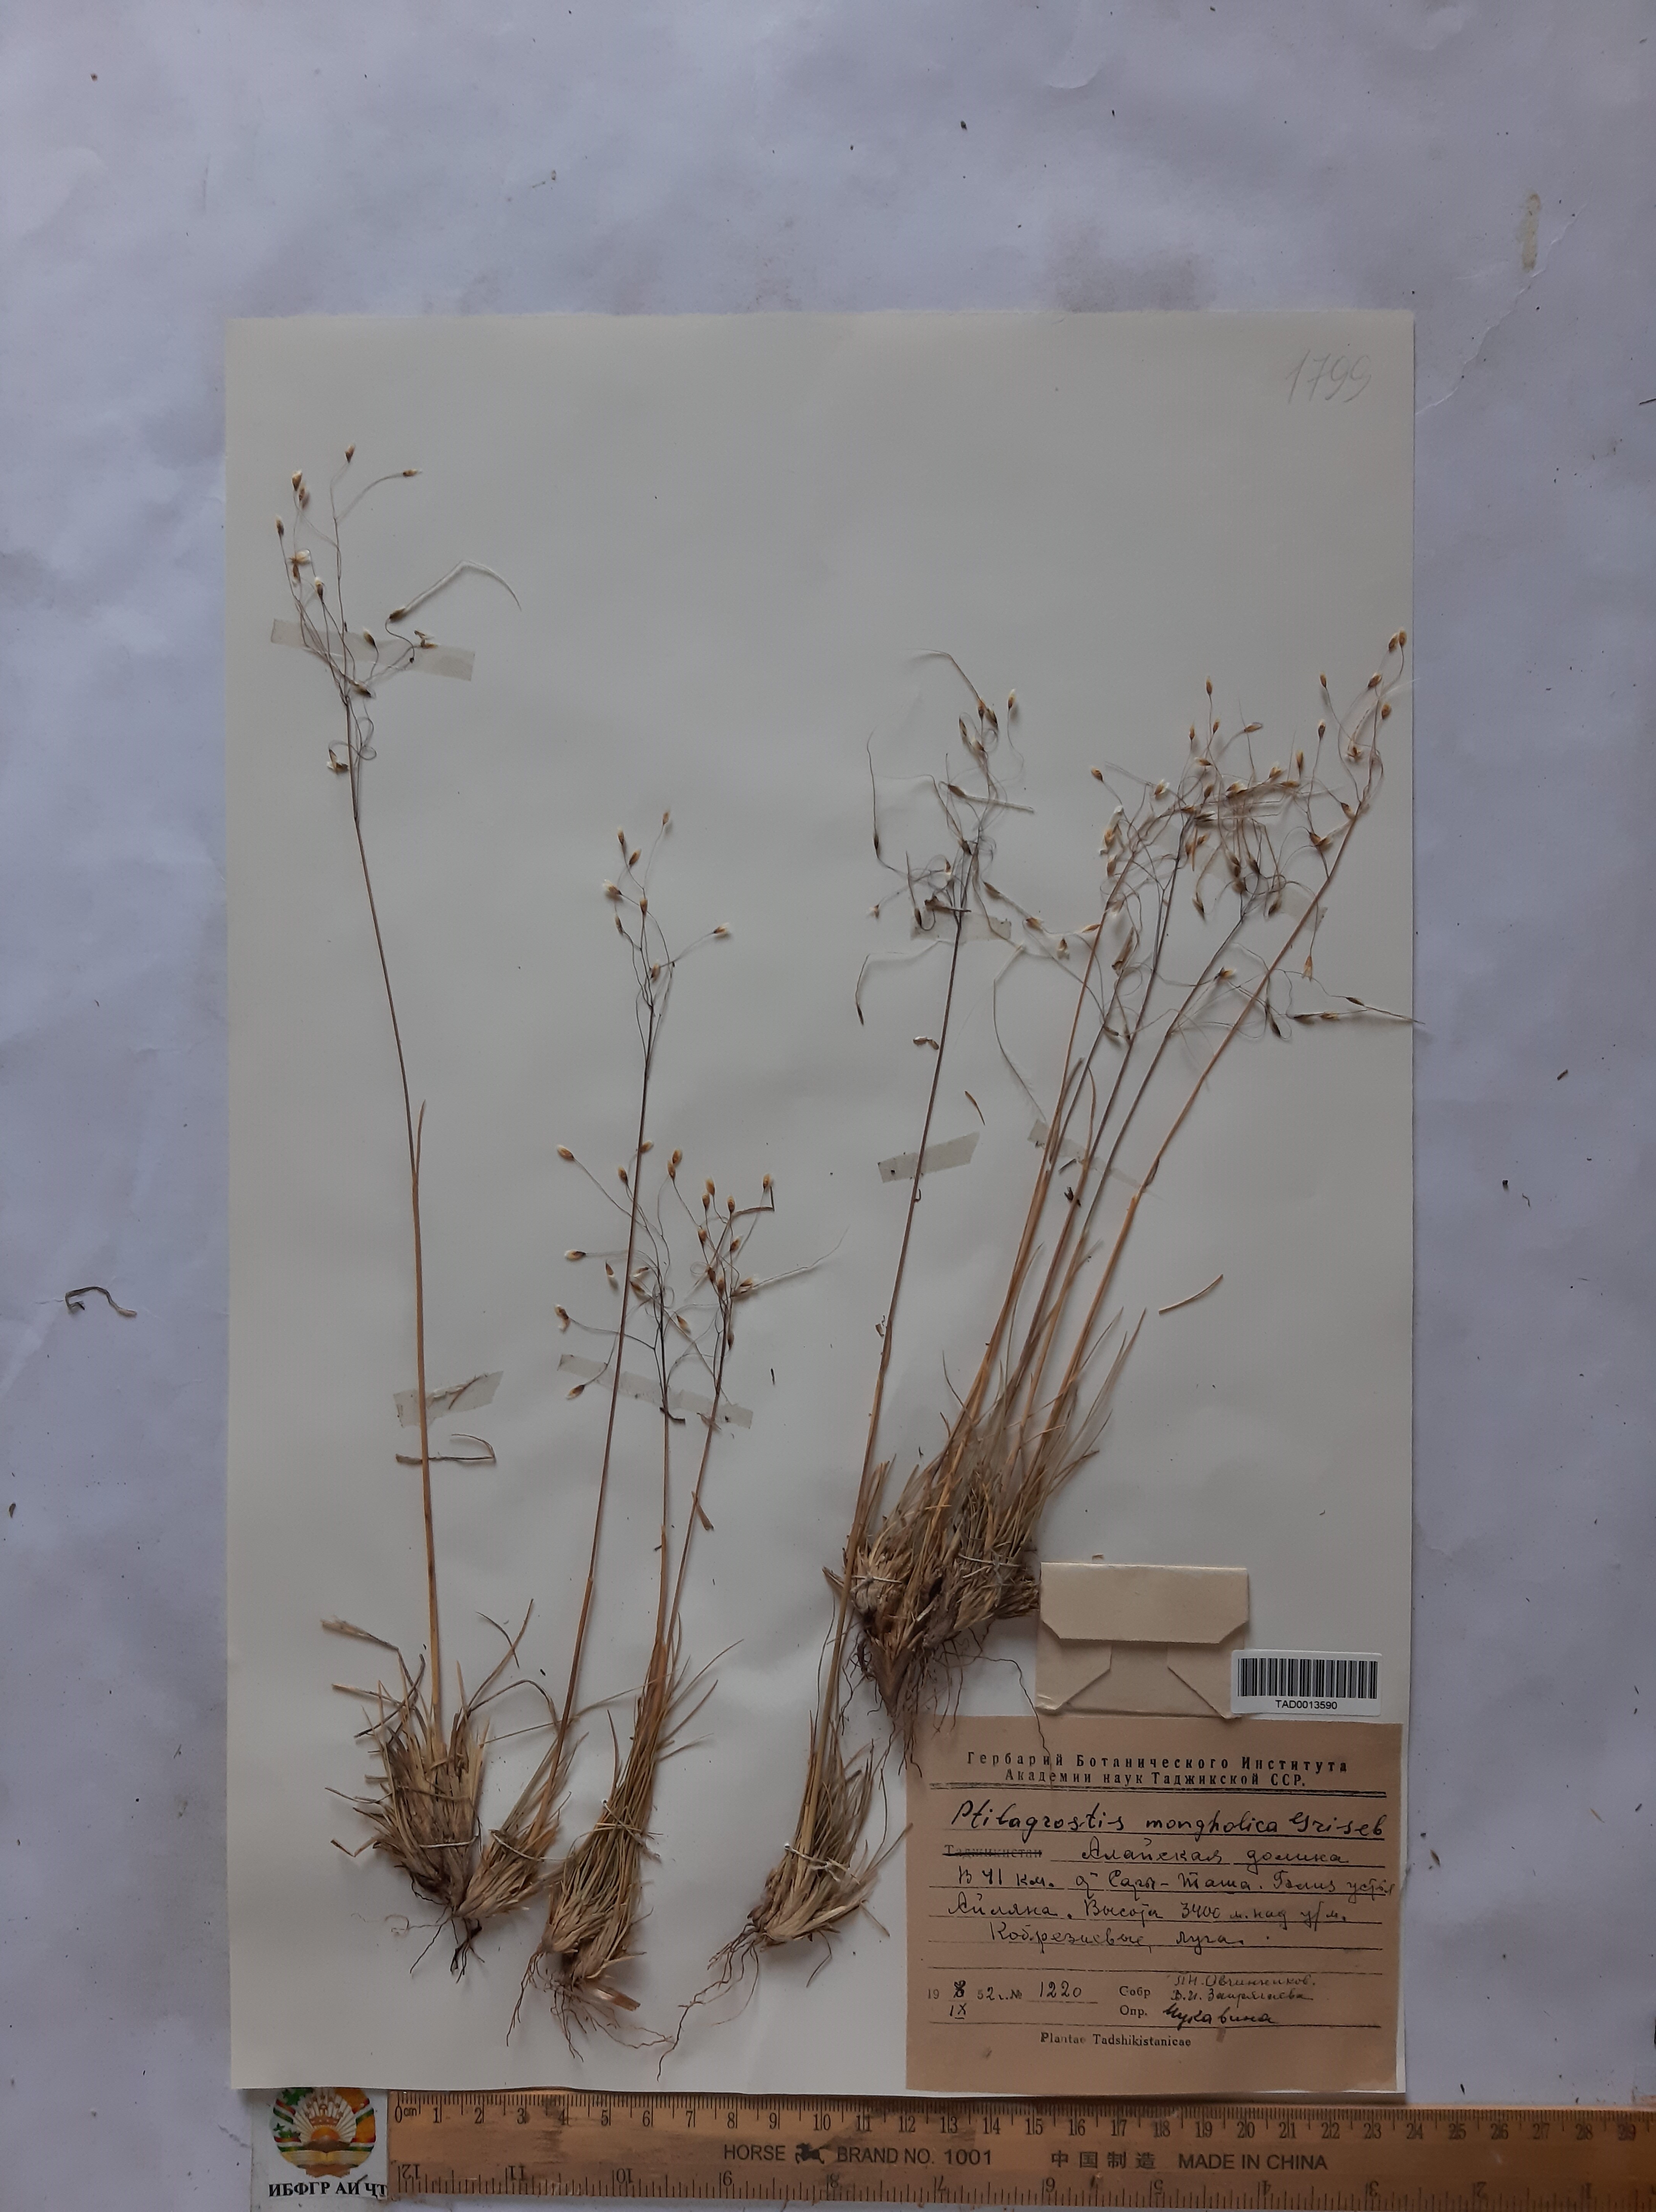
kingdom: Plantae
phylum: Tracheophyta
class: Liliopsida
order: Poales
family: Poaceae
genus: Ptilagrostis
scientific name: Ptilagrostis mongholica
